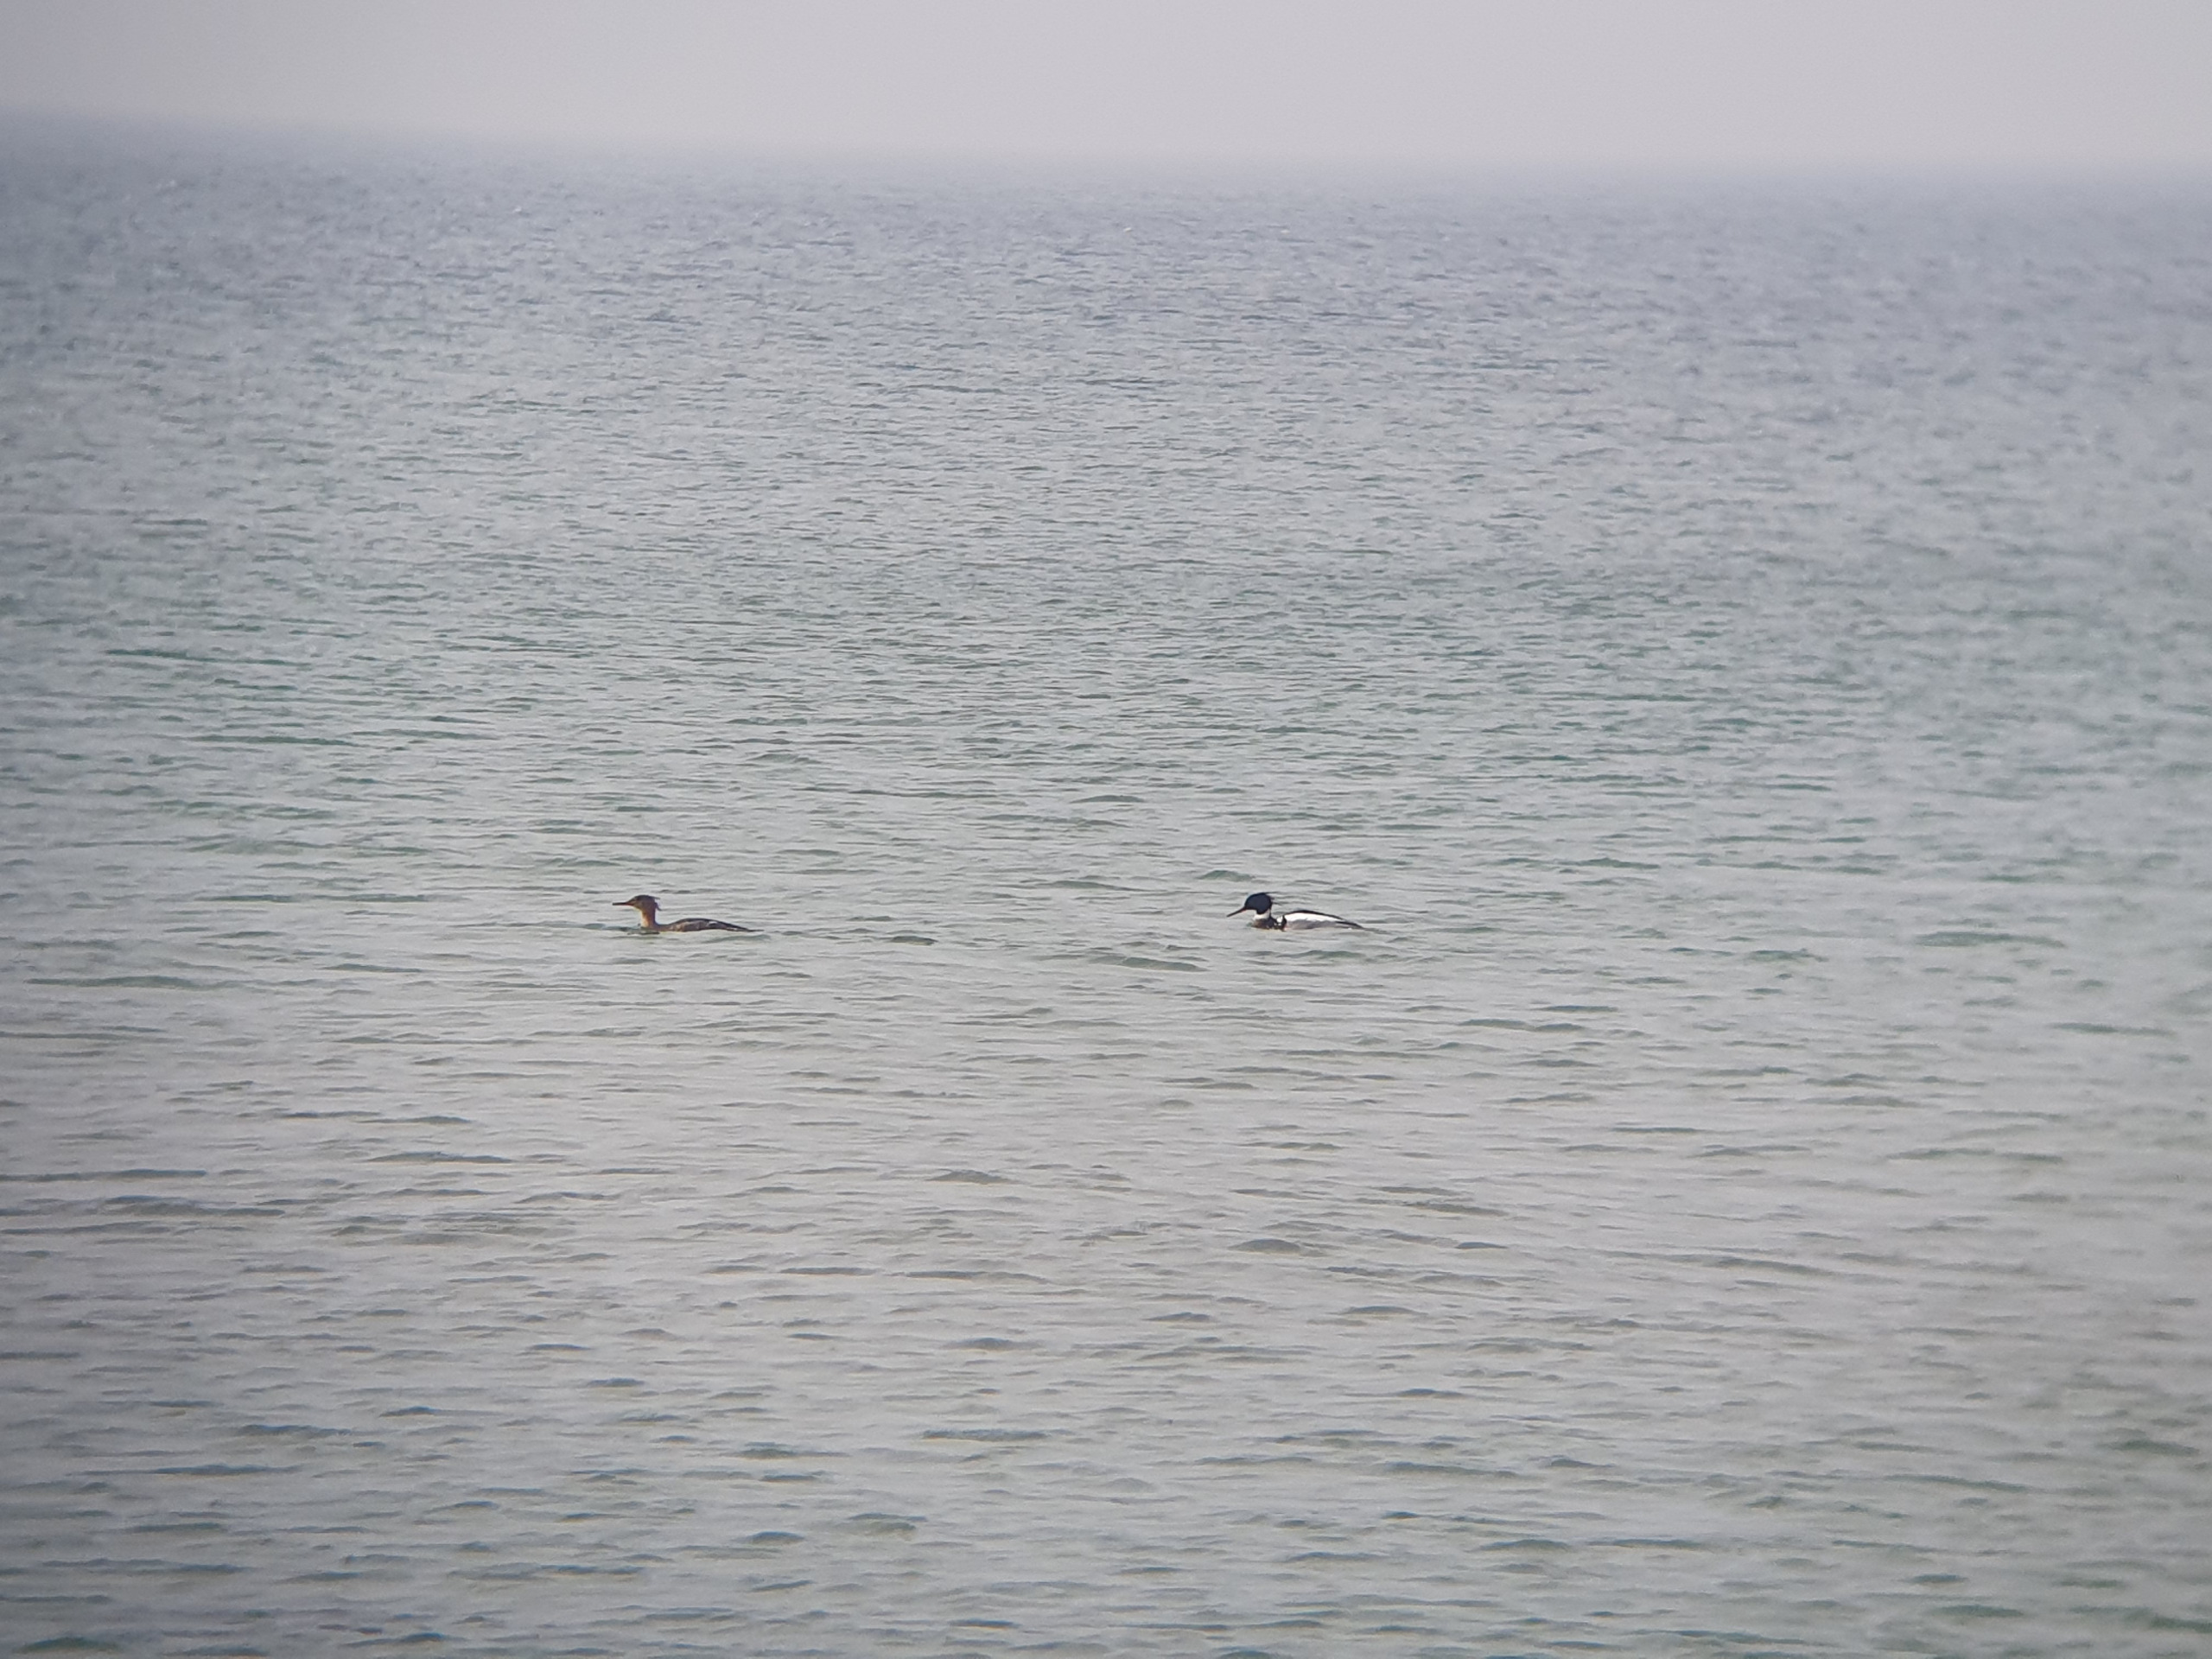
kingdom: Animalia
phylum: Chordata
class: Aves
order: Anseriformes
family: Anatidae
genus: Mergus
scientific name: Mergus serrator
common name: Toppet skallesluger
